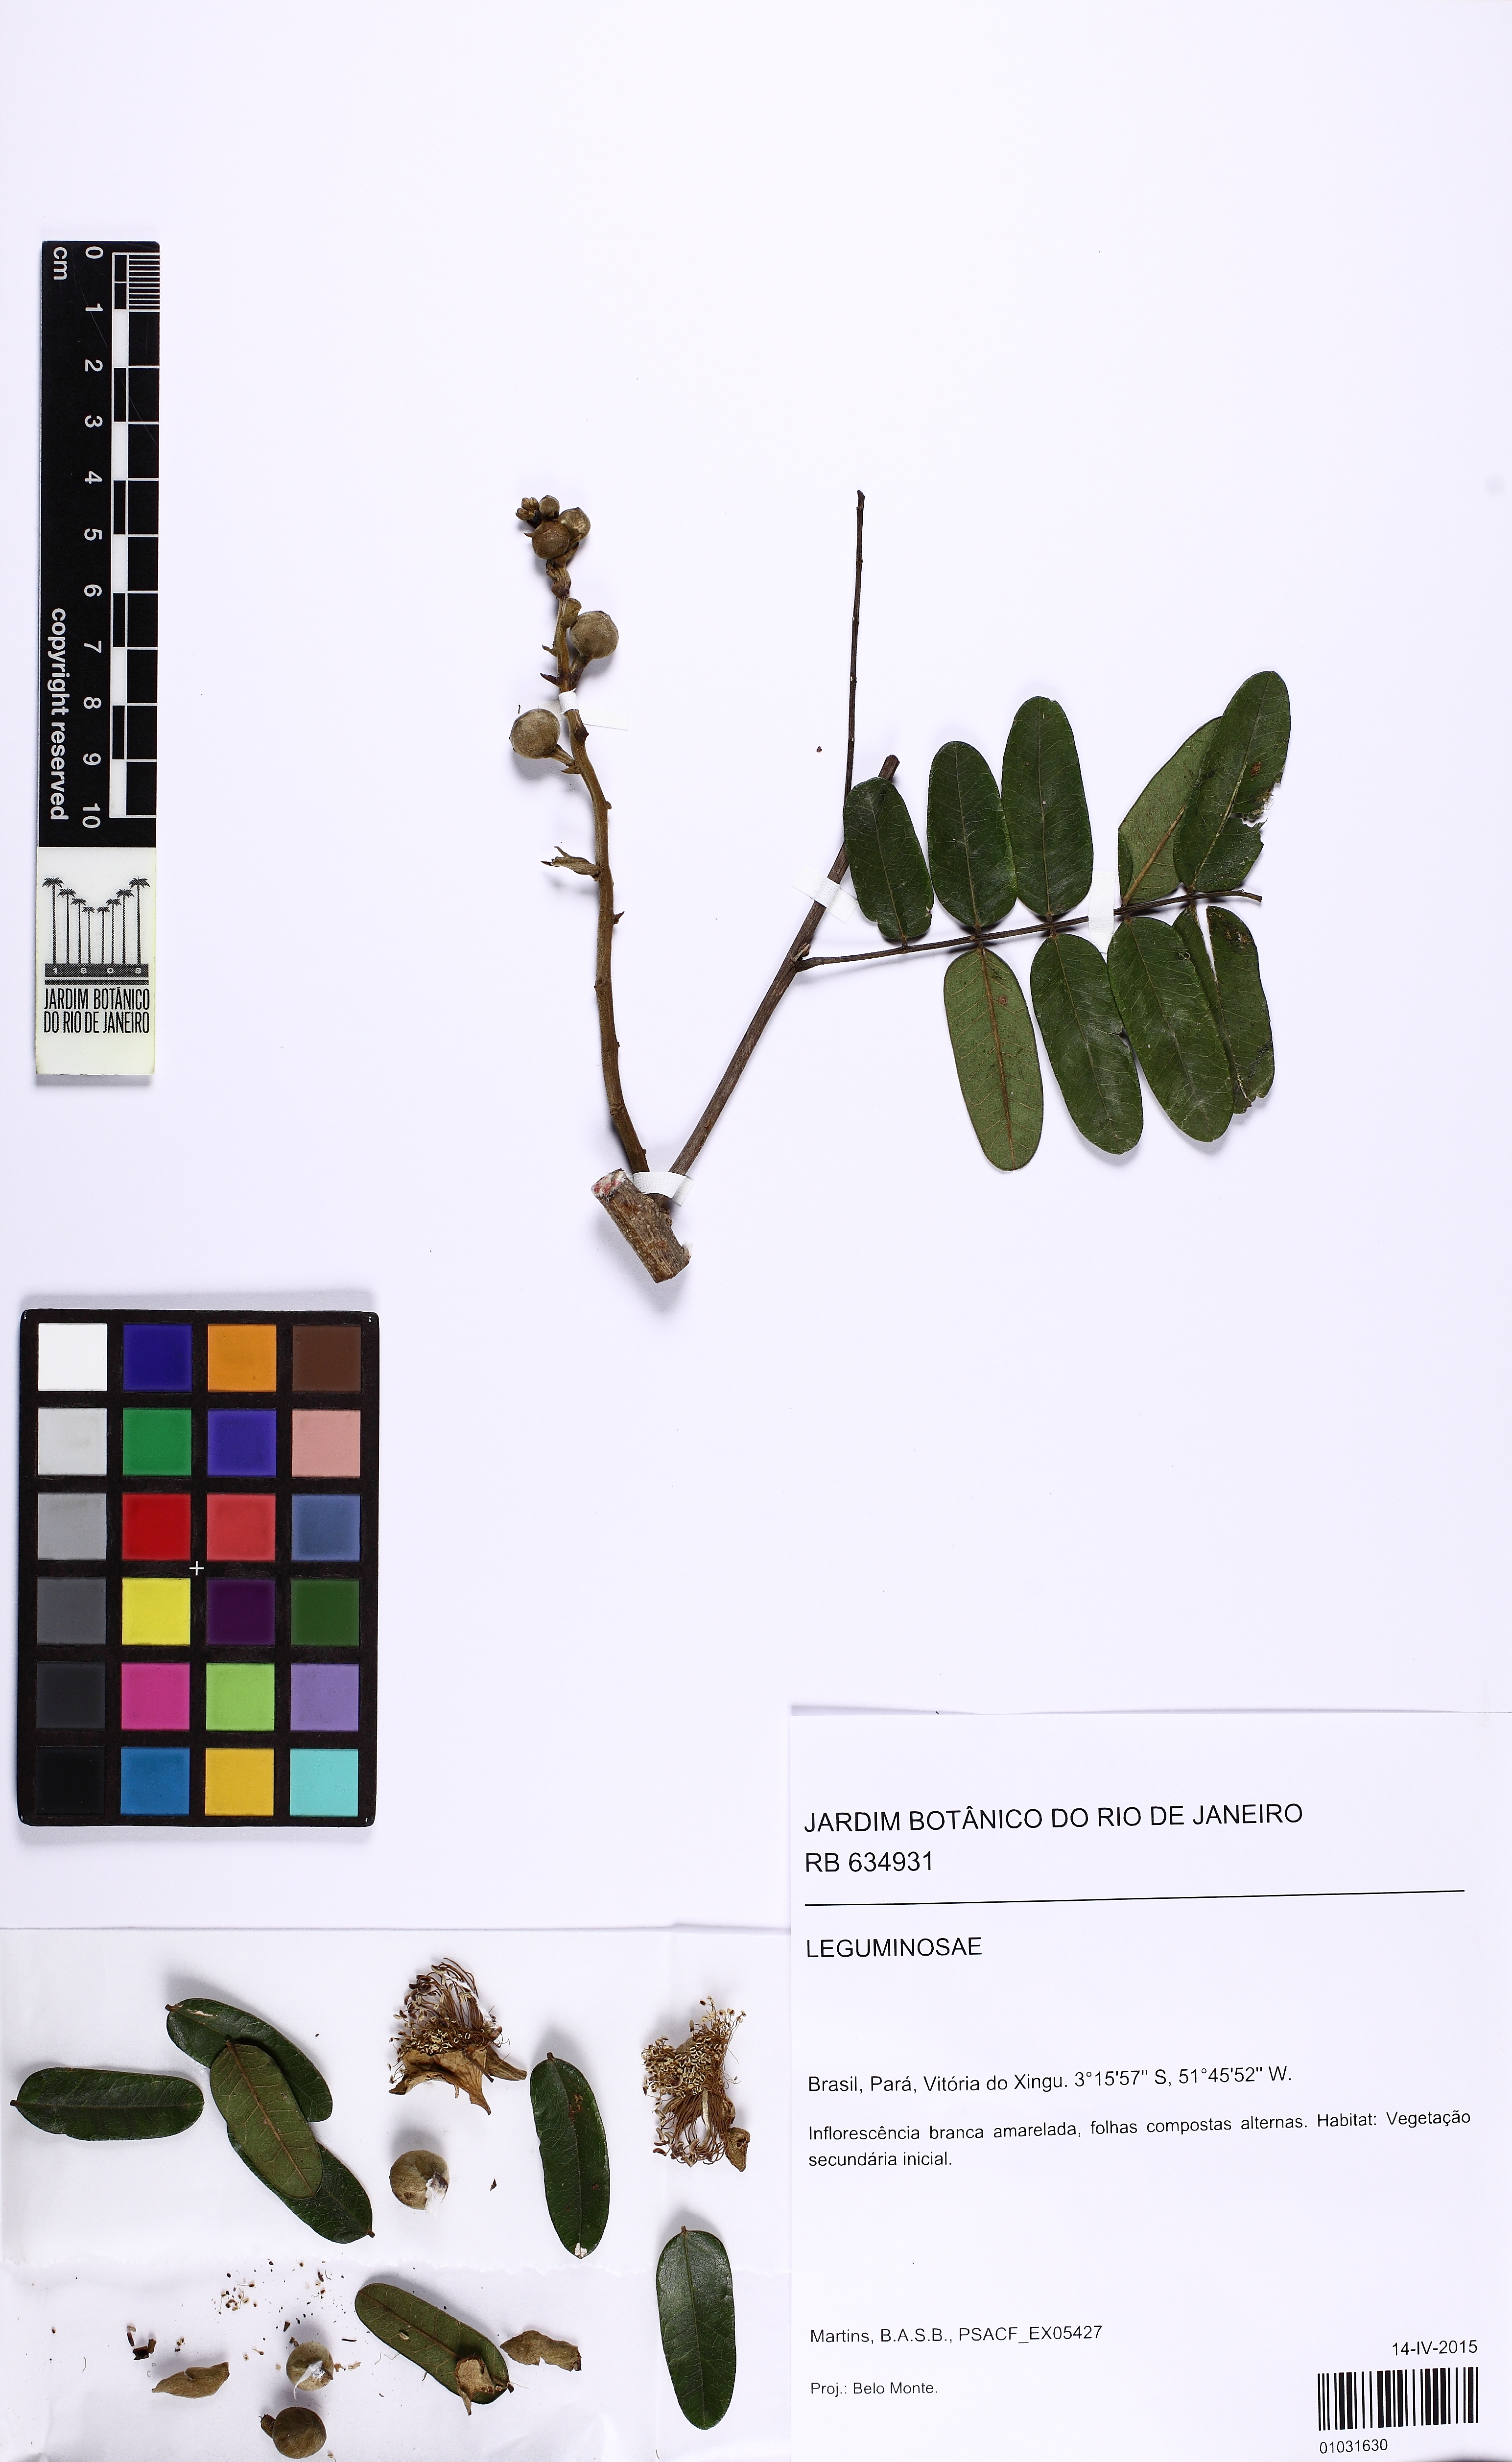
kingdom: Plantae
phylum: Tracheophyta
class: Magnoliopsida
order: Fabales
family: Fabaceae
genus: Swartzia
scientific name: Swartzia
